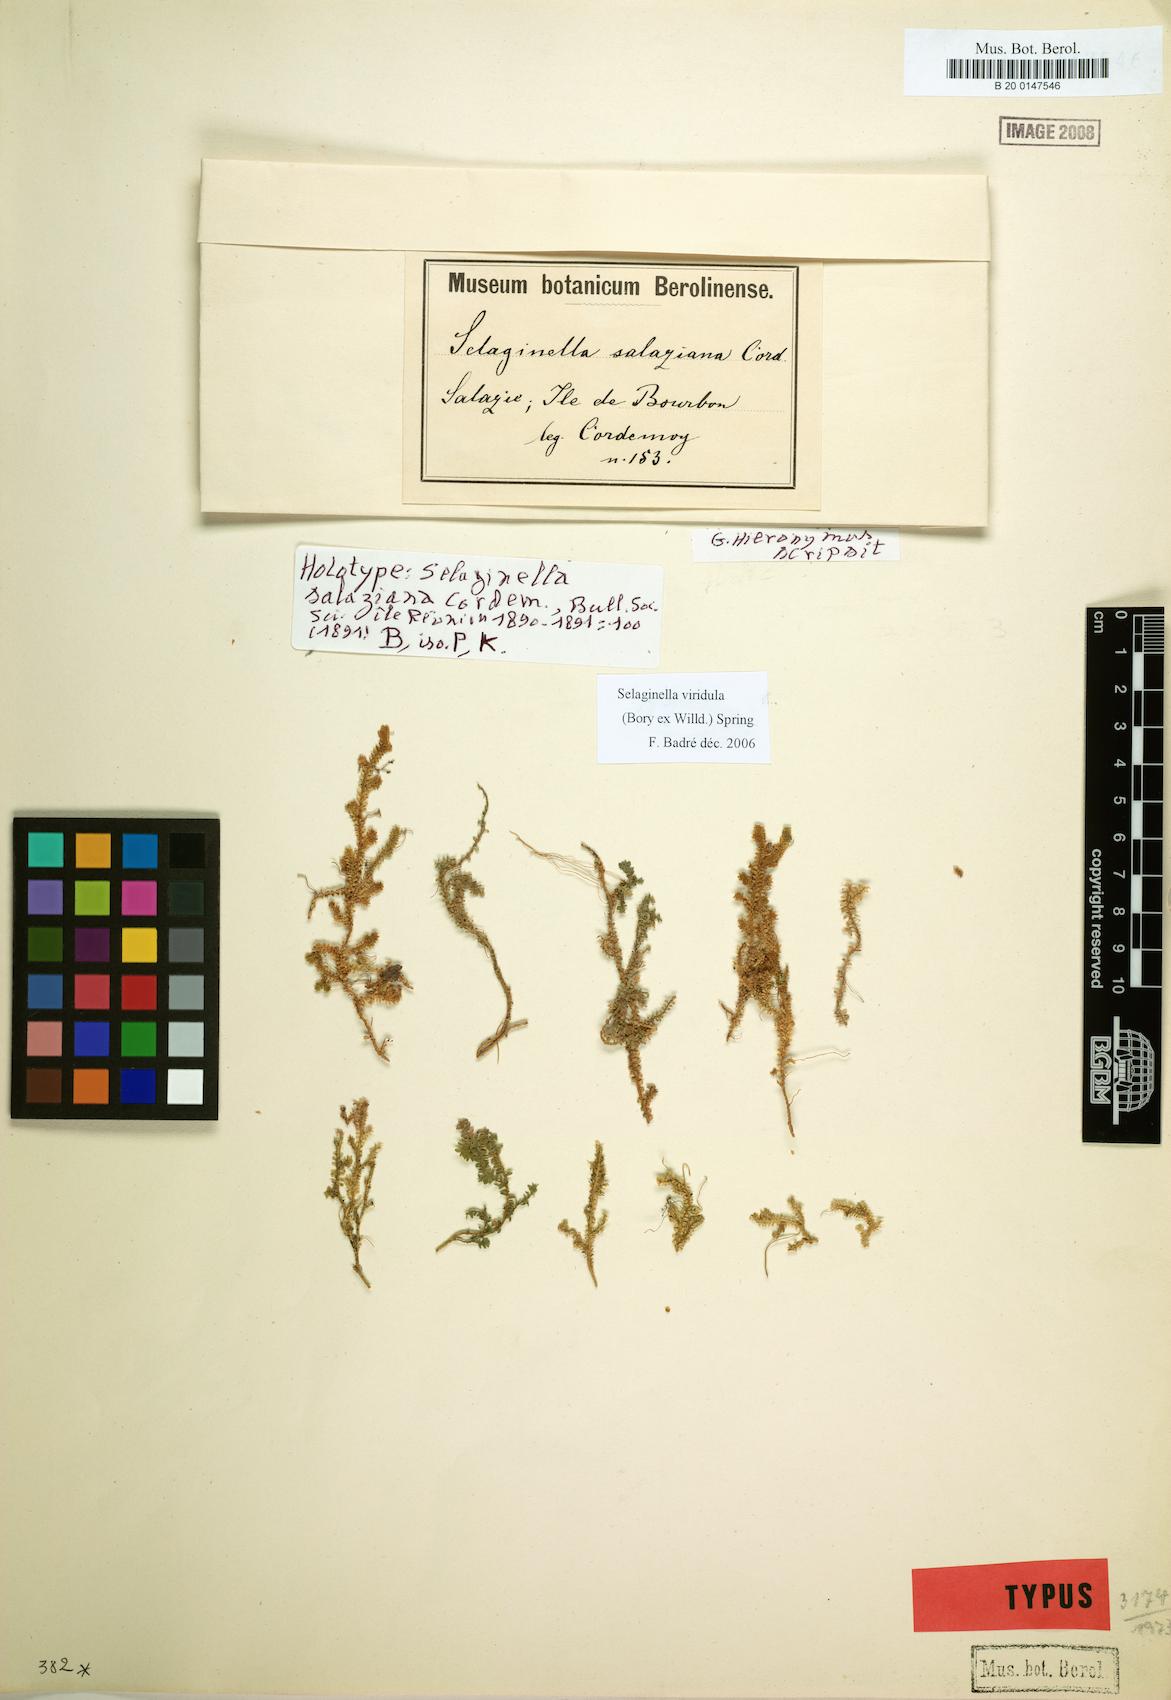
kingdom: Plantae
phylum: Tracheophyta
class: Lycopodiopsida
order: Selaginellales
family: Selaginellaceae
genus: Selaginella
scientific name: Selaginella viridula
